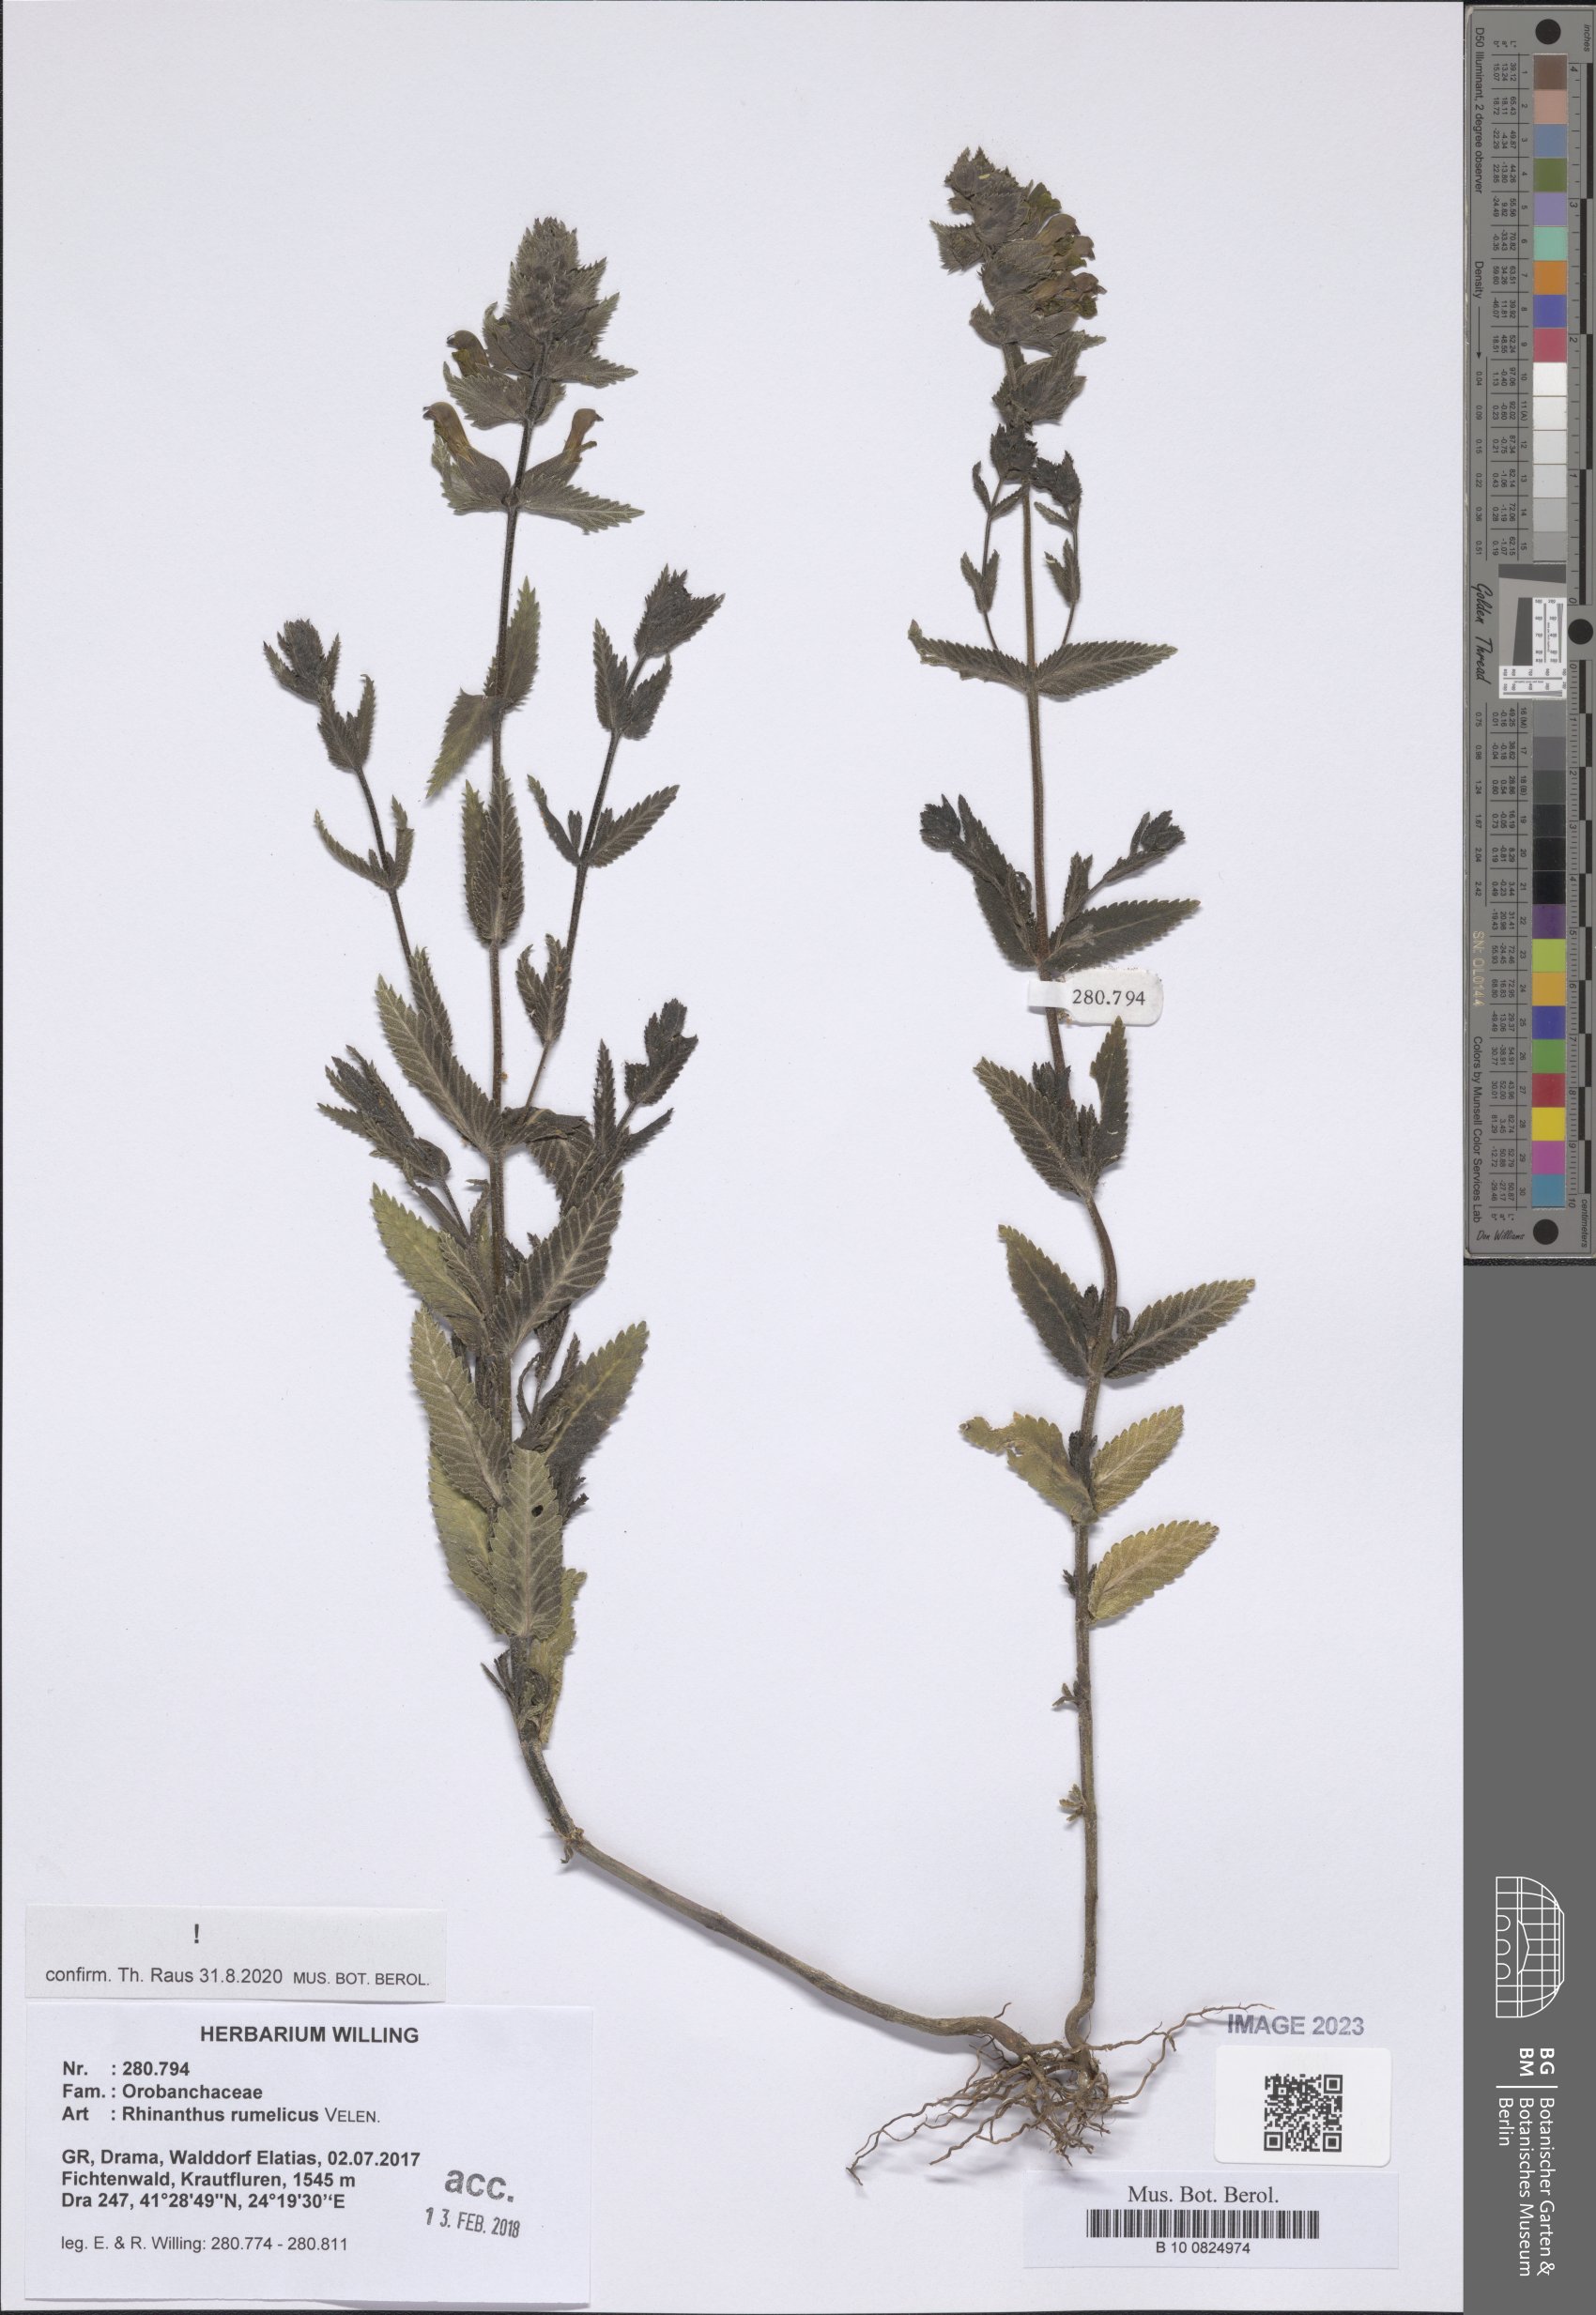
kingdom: Plantae
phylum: Tracheophyta
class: Magnoliopsida
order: Lamiales
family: Orobanchaceae
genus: Rhinanthus
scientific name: Rhinanthus rumelicus
